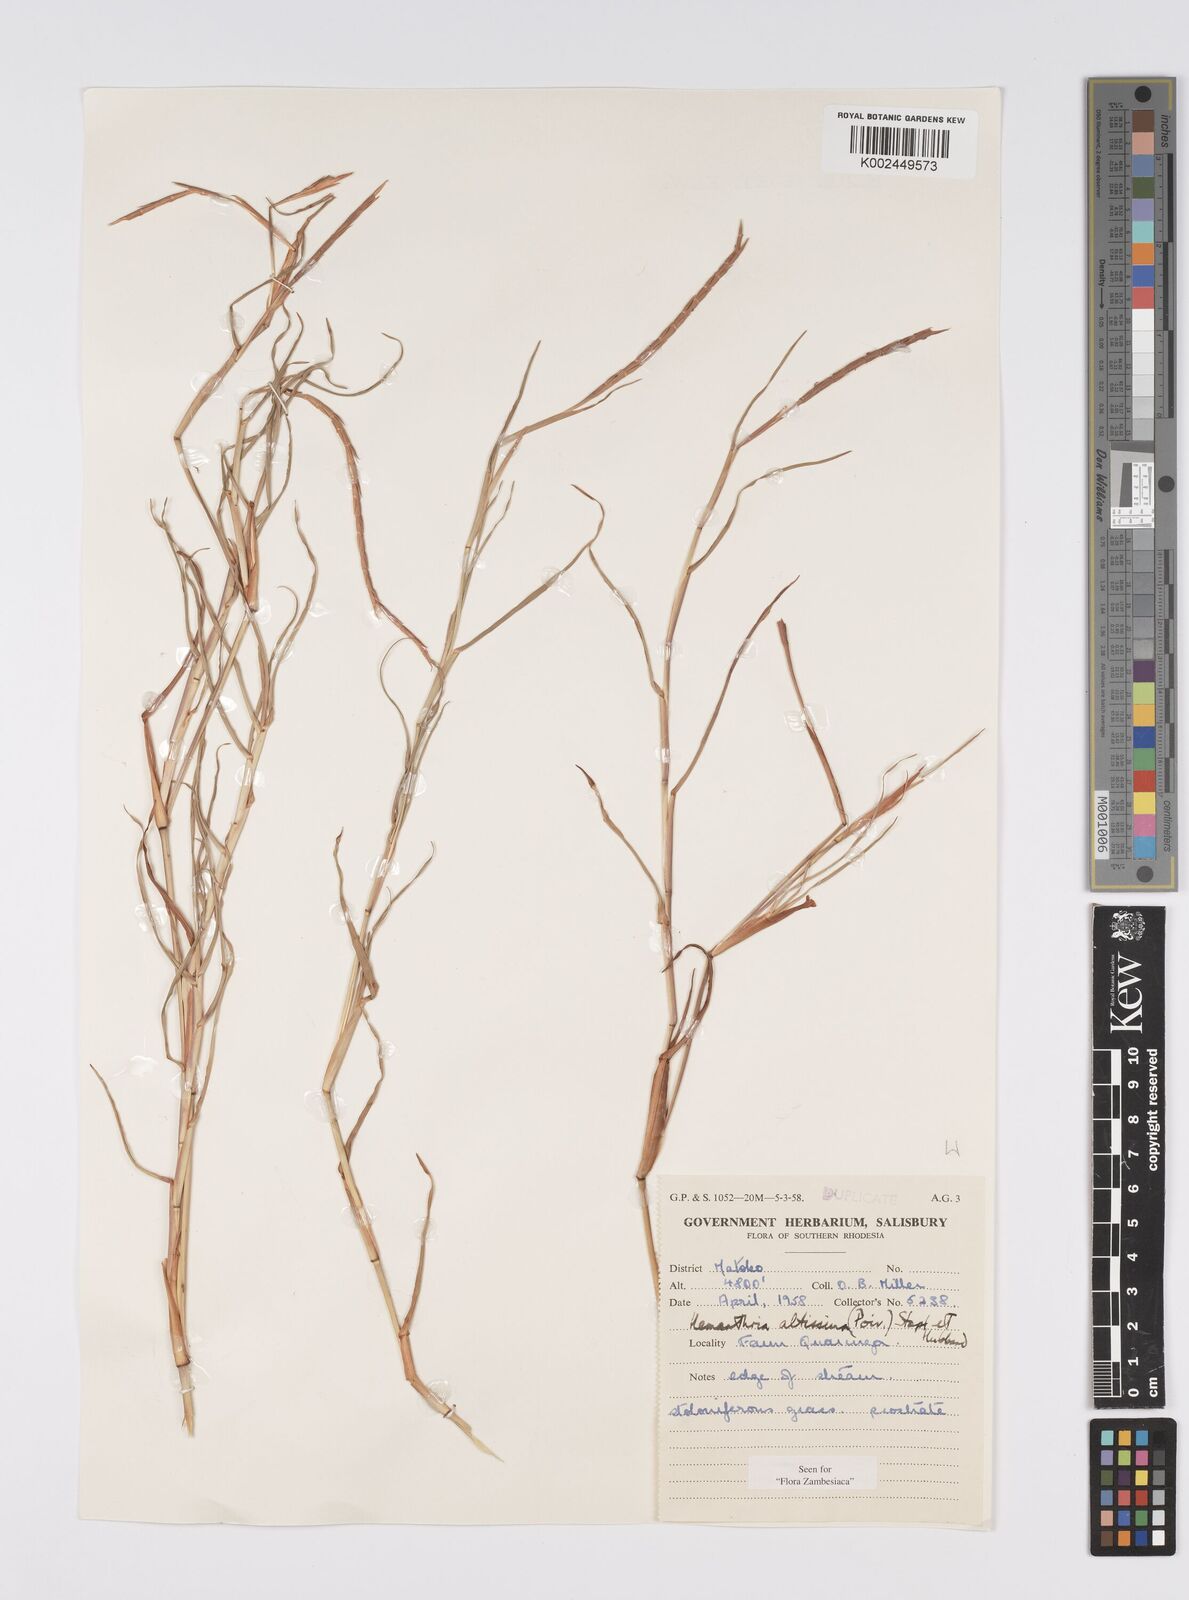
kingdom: Plantae
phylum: Tracheophyta
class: Liliopsida
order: Poales
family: Poaceae
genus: Hemarthria
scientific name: Hemarthria altissima
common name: African jointgrass
